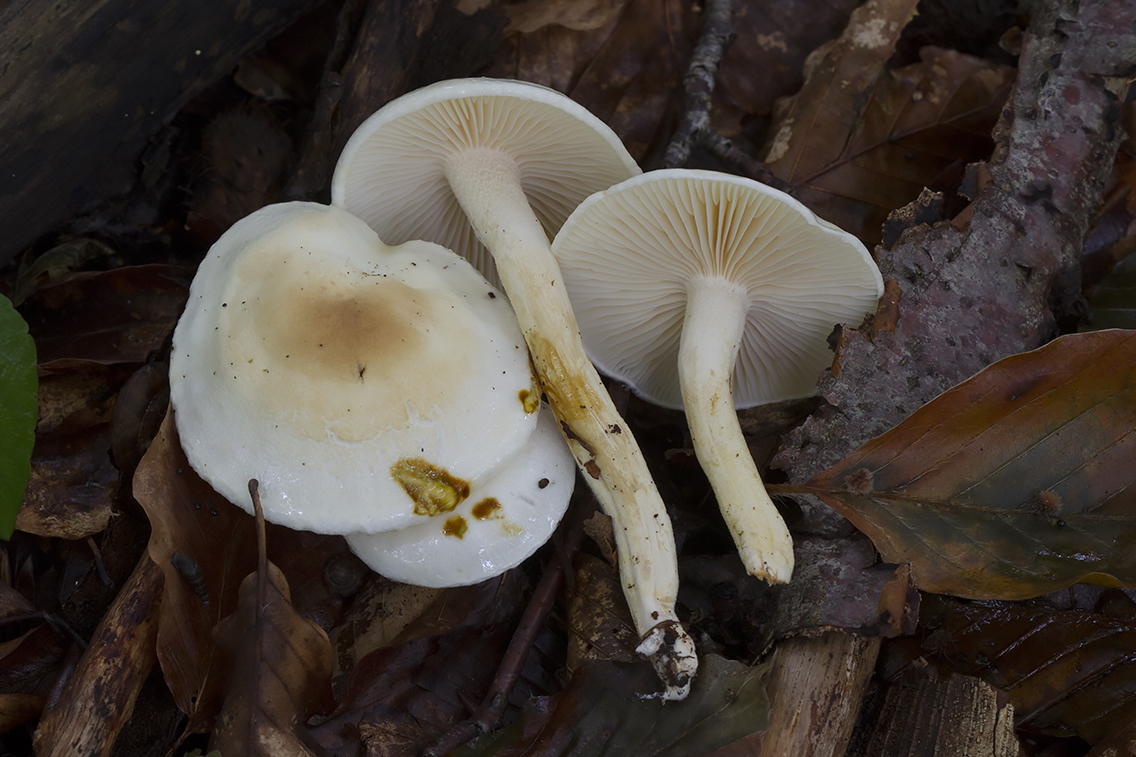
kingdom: Fungi
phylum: Basidiomycota
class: Agaricomycetes
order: Agaricales
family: Hygrophoraceae
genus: Hygrophorus
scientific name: Hygrophorus discoxanthus
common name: ildelugtende sneglehat
